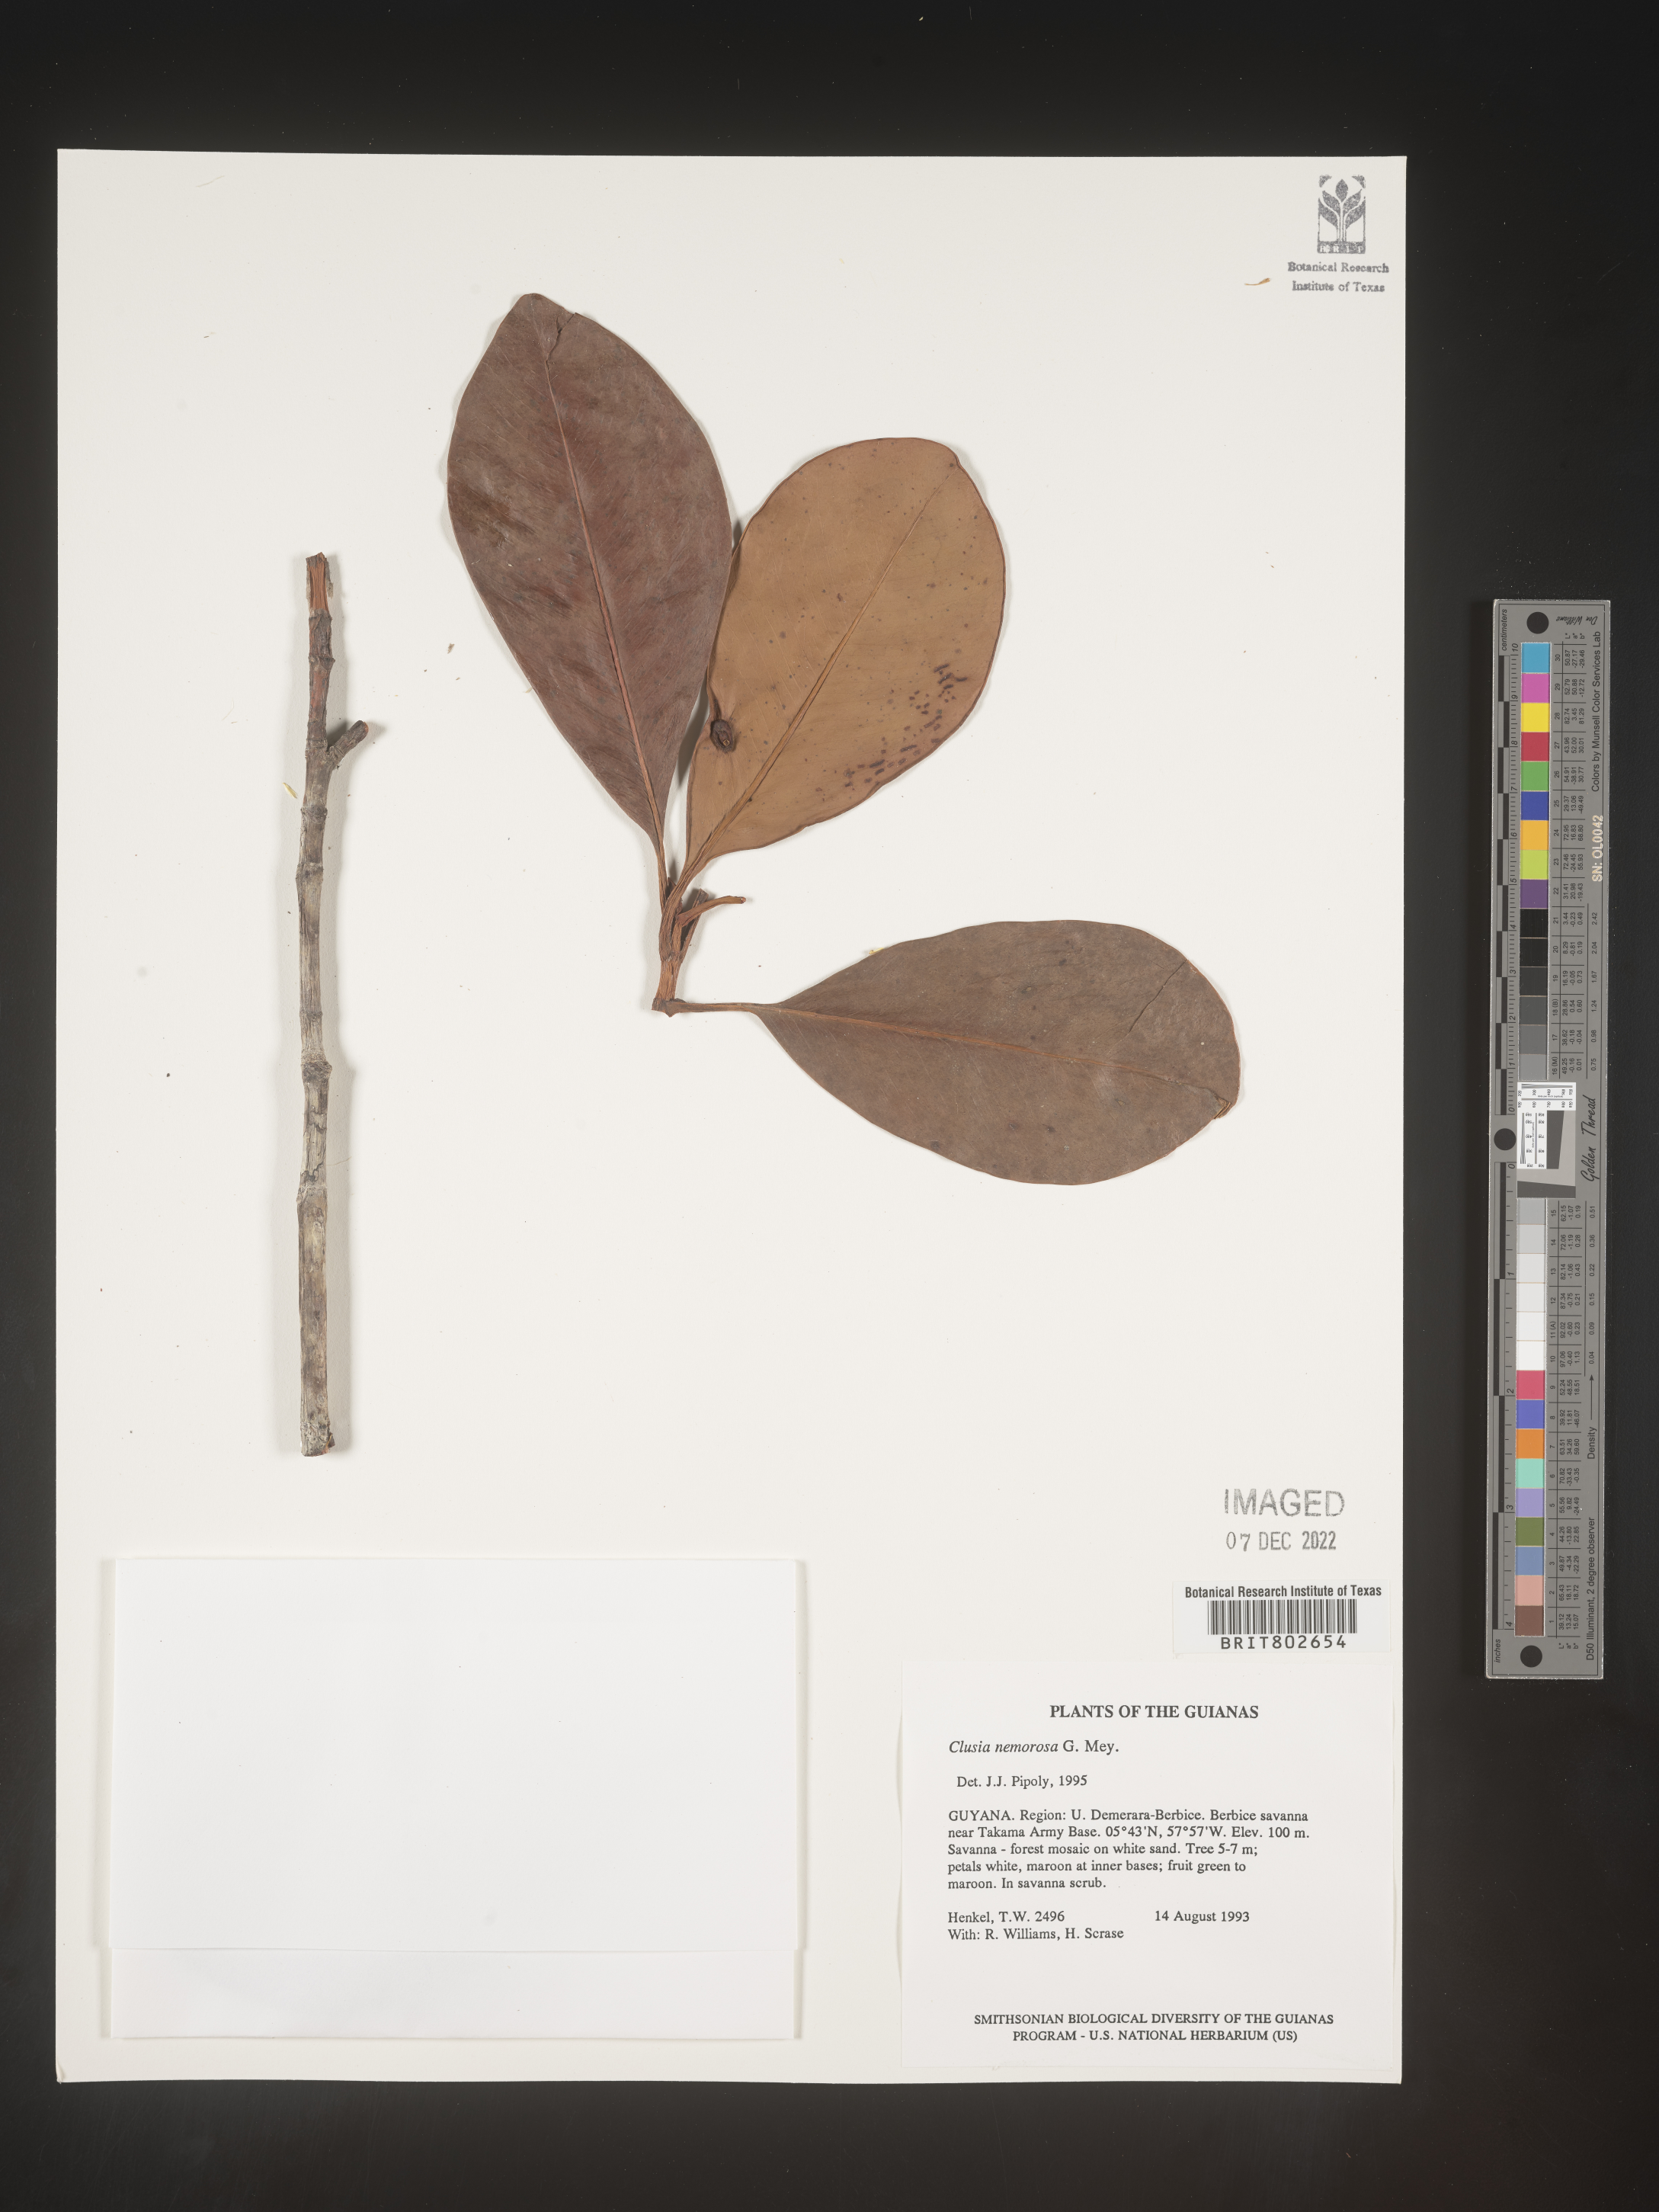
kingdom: Plantae
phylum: Tracheophyta
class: Magnoliopsida
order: Malpighiales
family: Clusiaceae
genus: Clusia
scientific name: Clusia nemorosa
